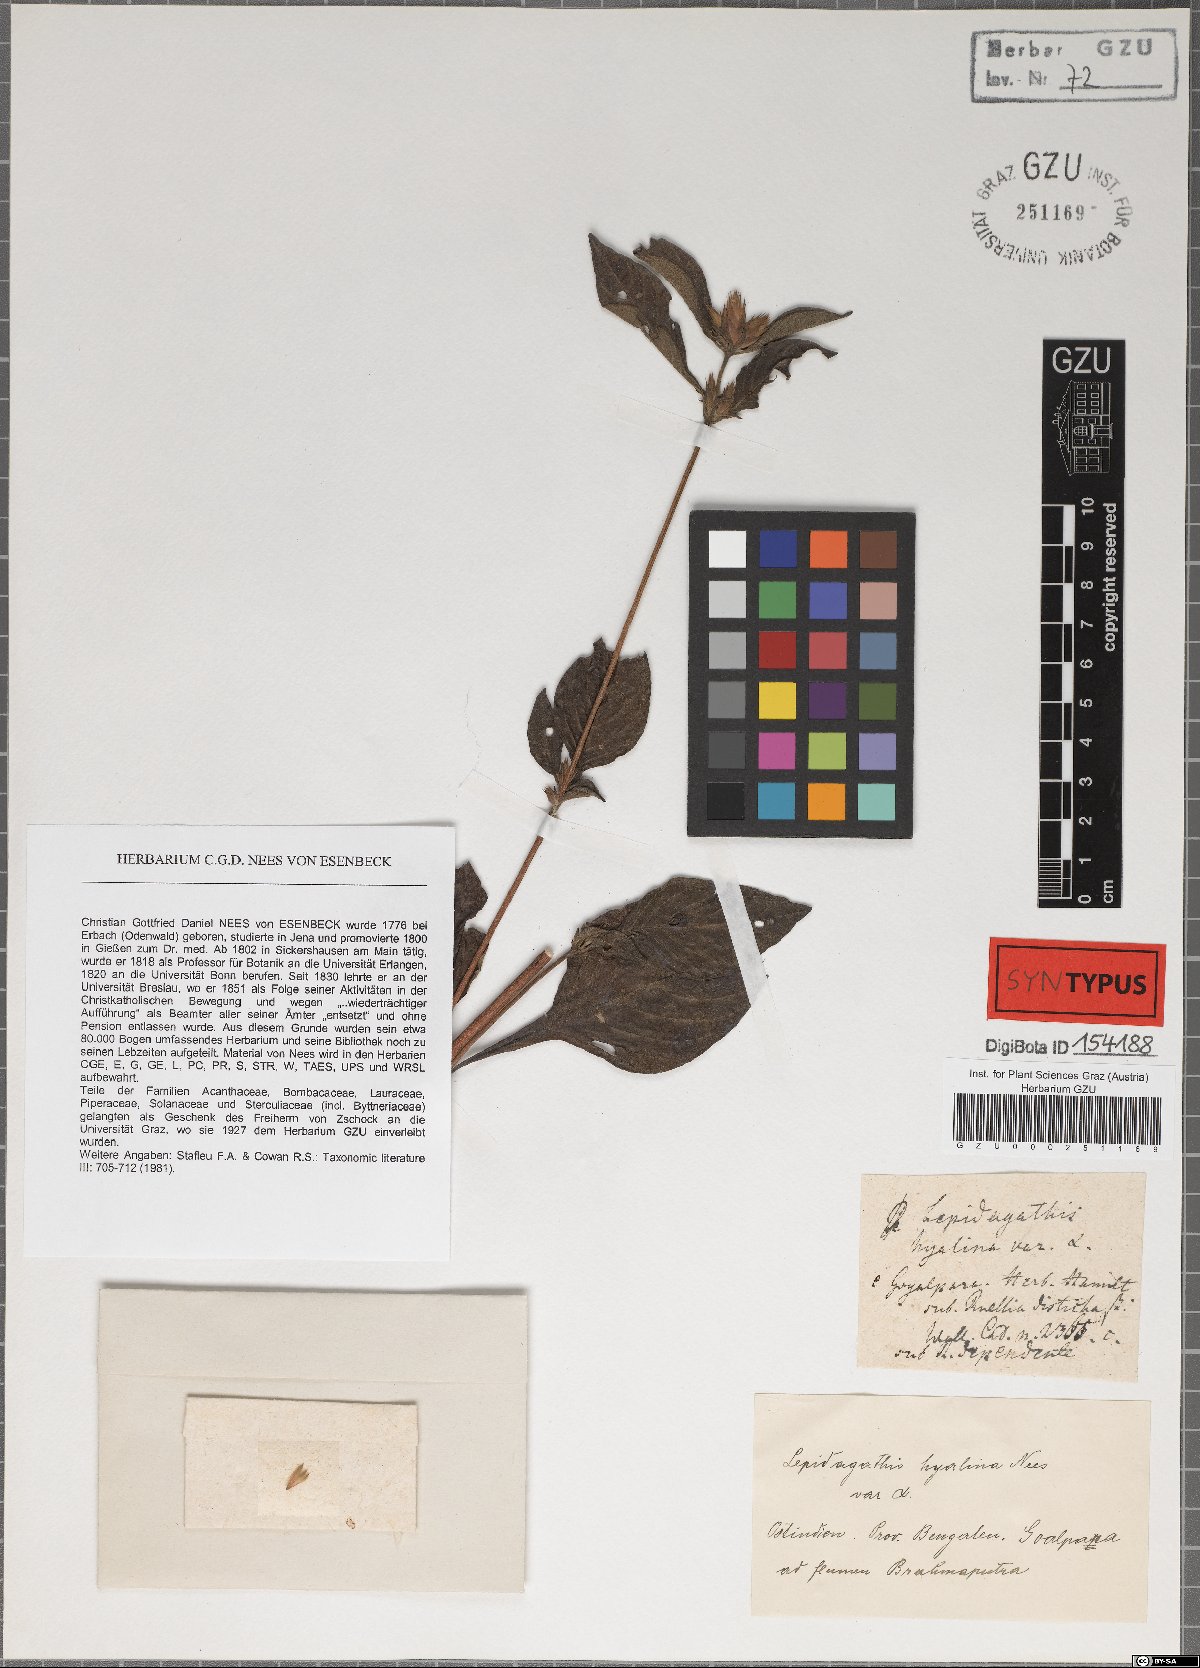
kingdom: Plantae
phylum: Tracheophyta
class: Magnoliopsida
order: Lamiales
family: Acanthaceae
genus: Lepidagathis
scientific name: Lepidagathis incurva
